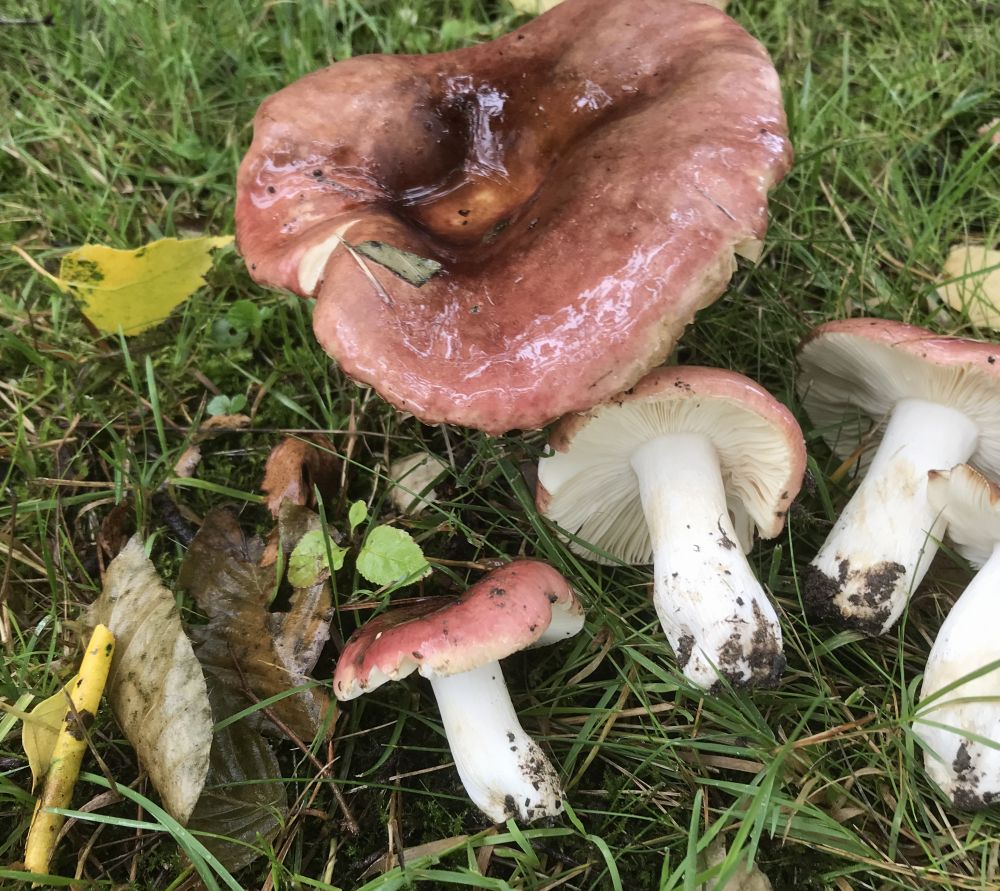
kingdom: Fungi
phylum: Basidiomycota
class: Agaricomycetes
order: Russulales
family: Russulaceae
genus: Russula
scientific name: Russula
